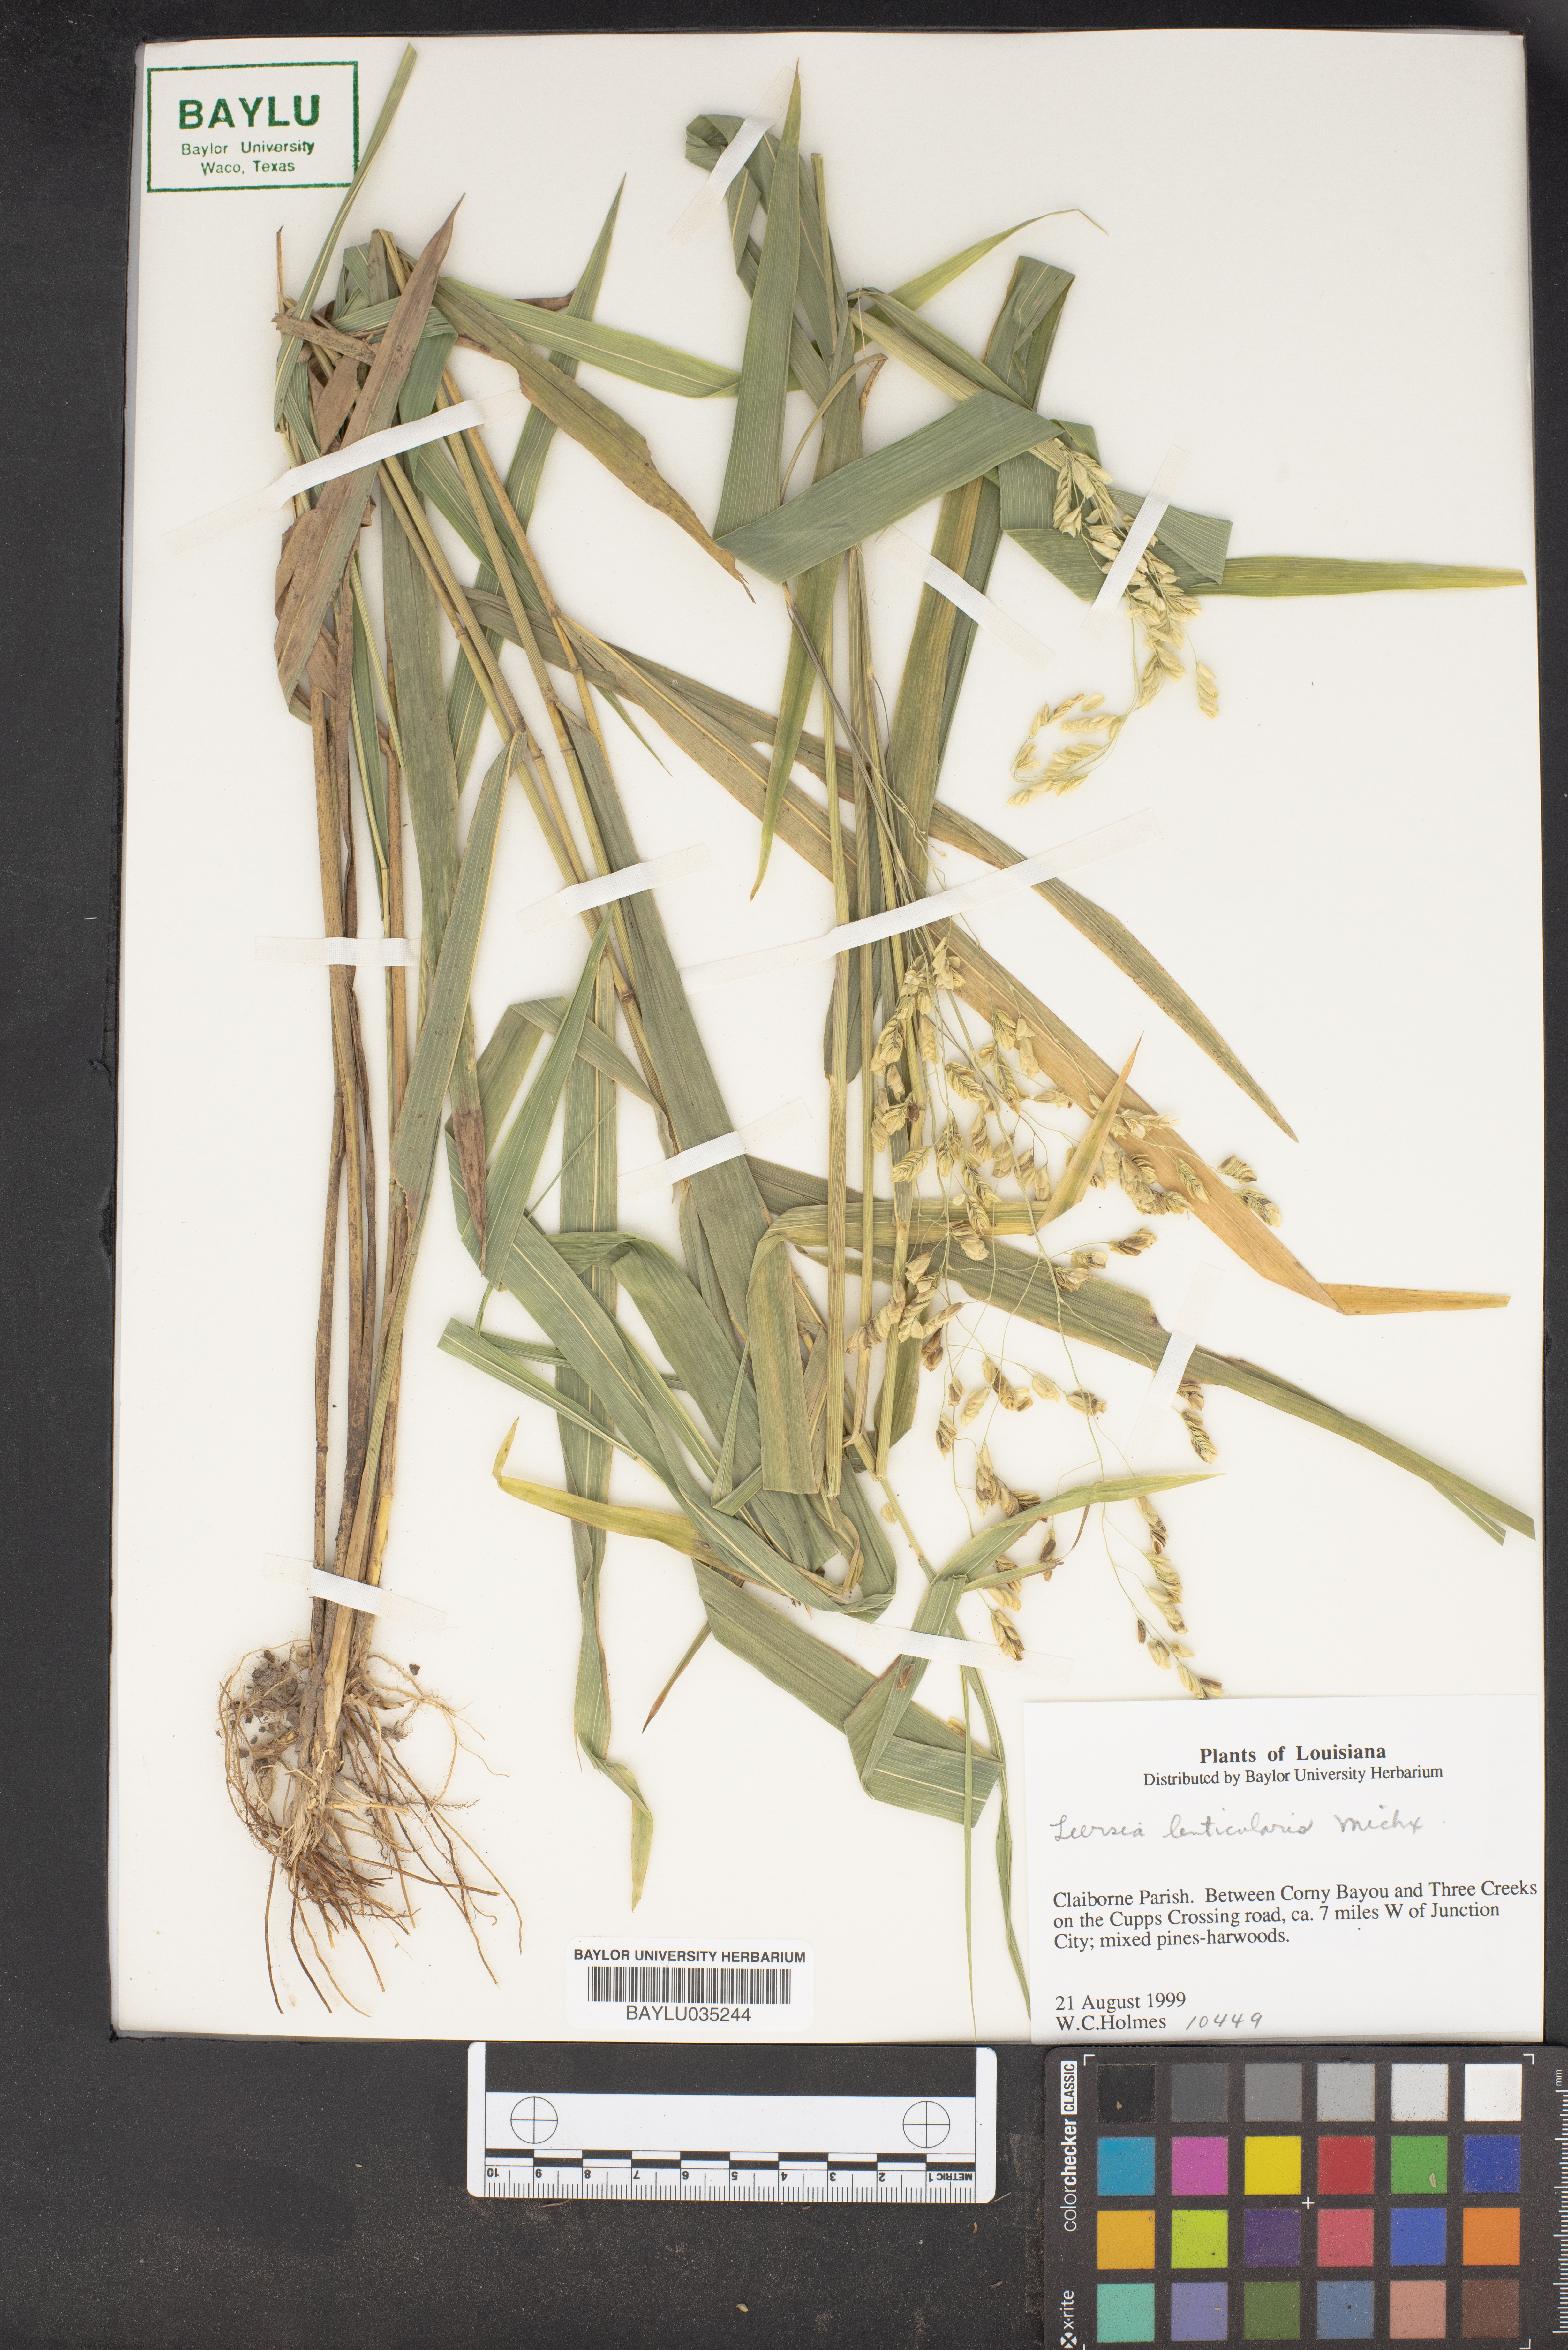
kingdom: Plantae
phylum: Tracheophyta
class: Liliopsida
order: Poales
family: Poaceae
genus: Leersia
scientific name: Leersia lenticularis
